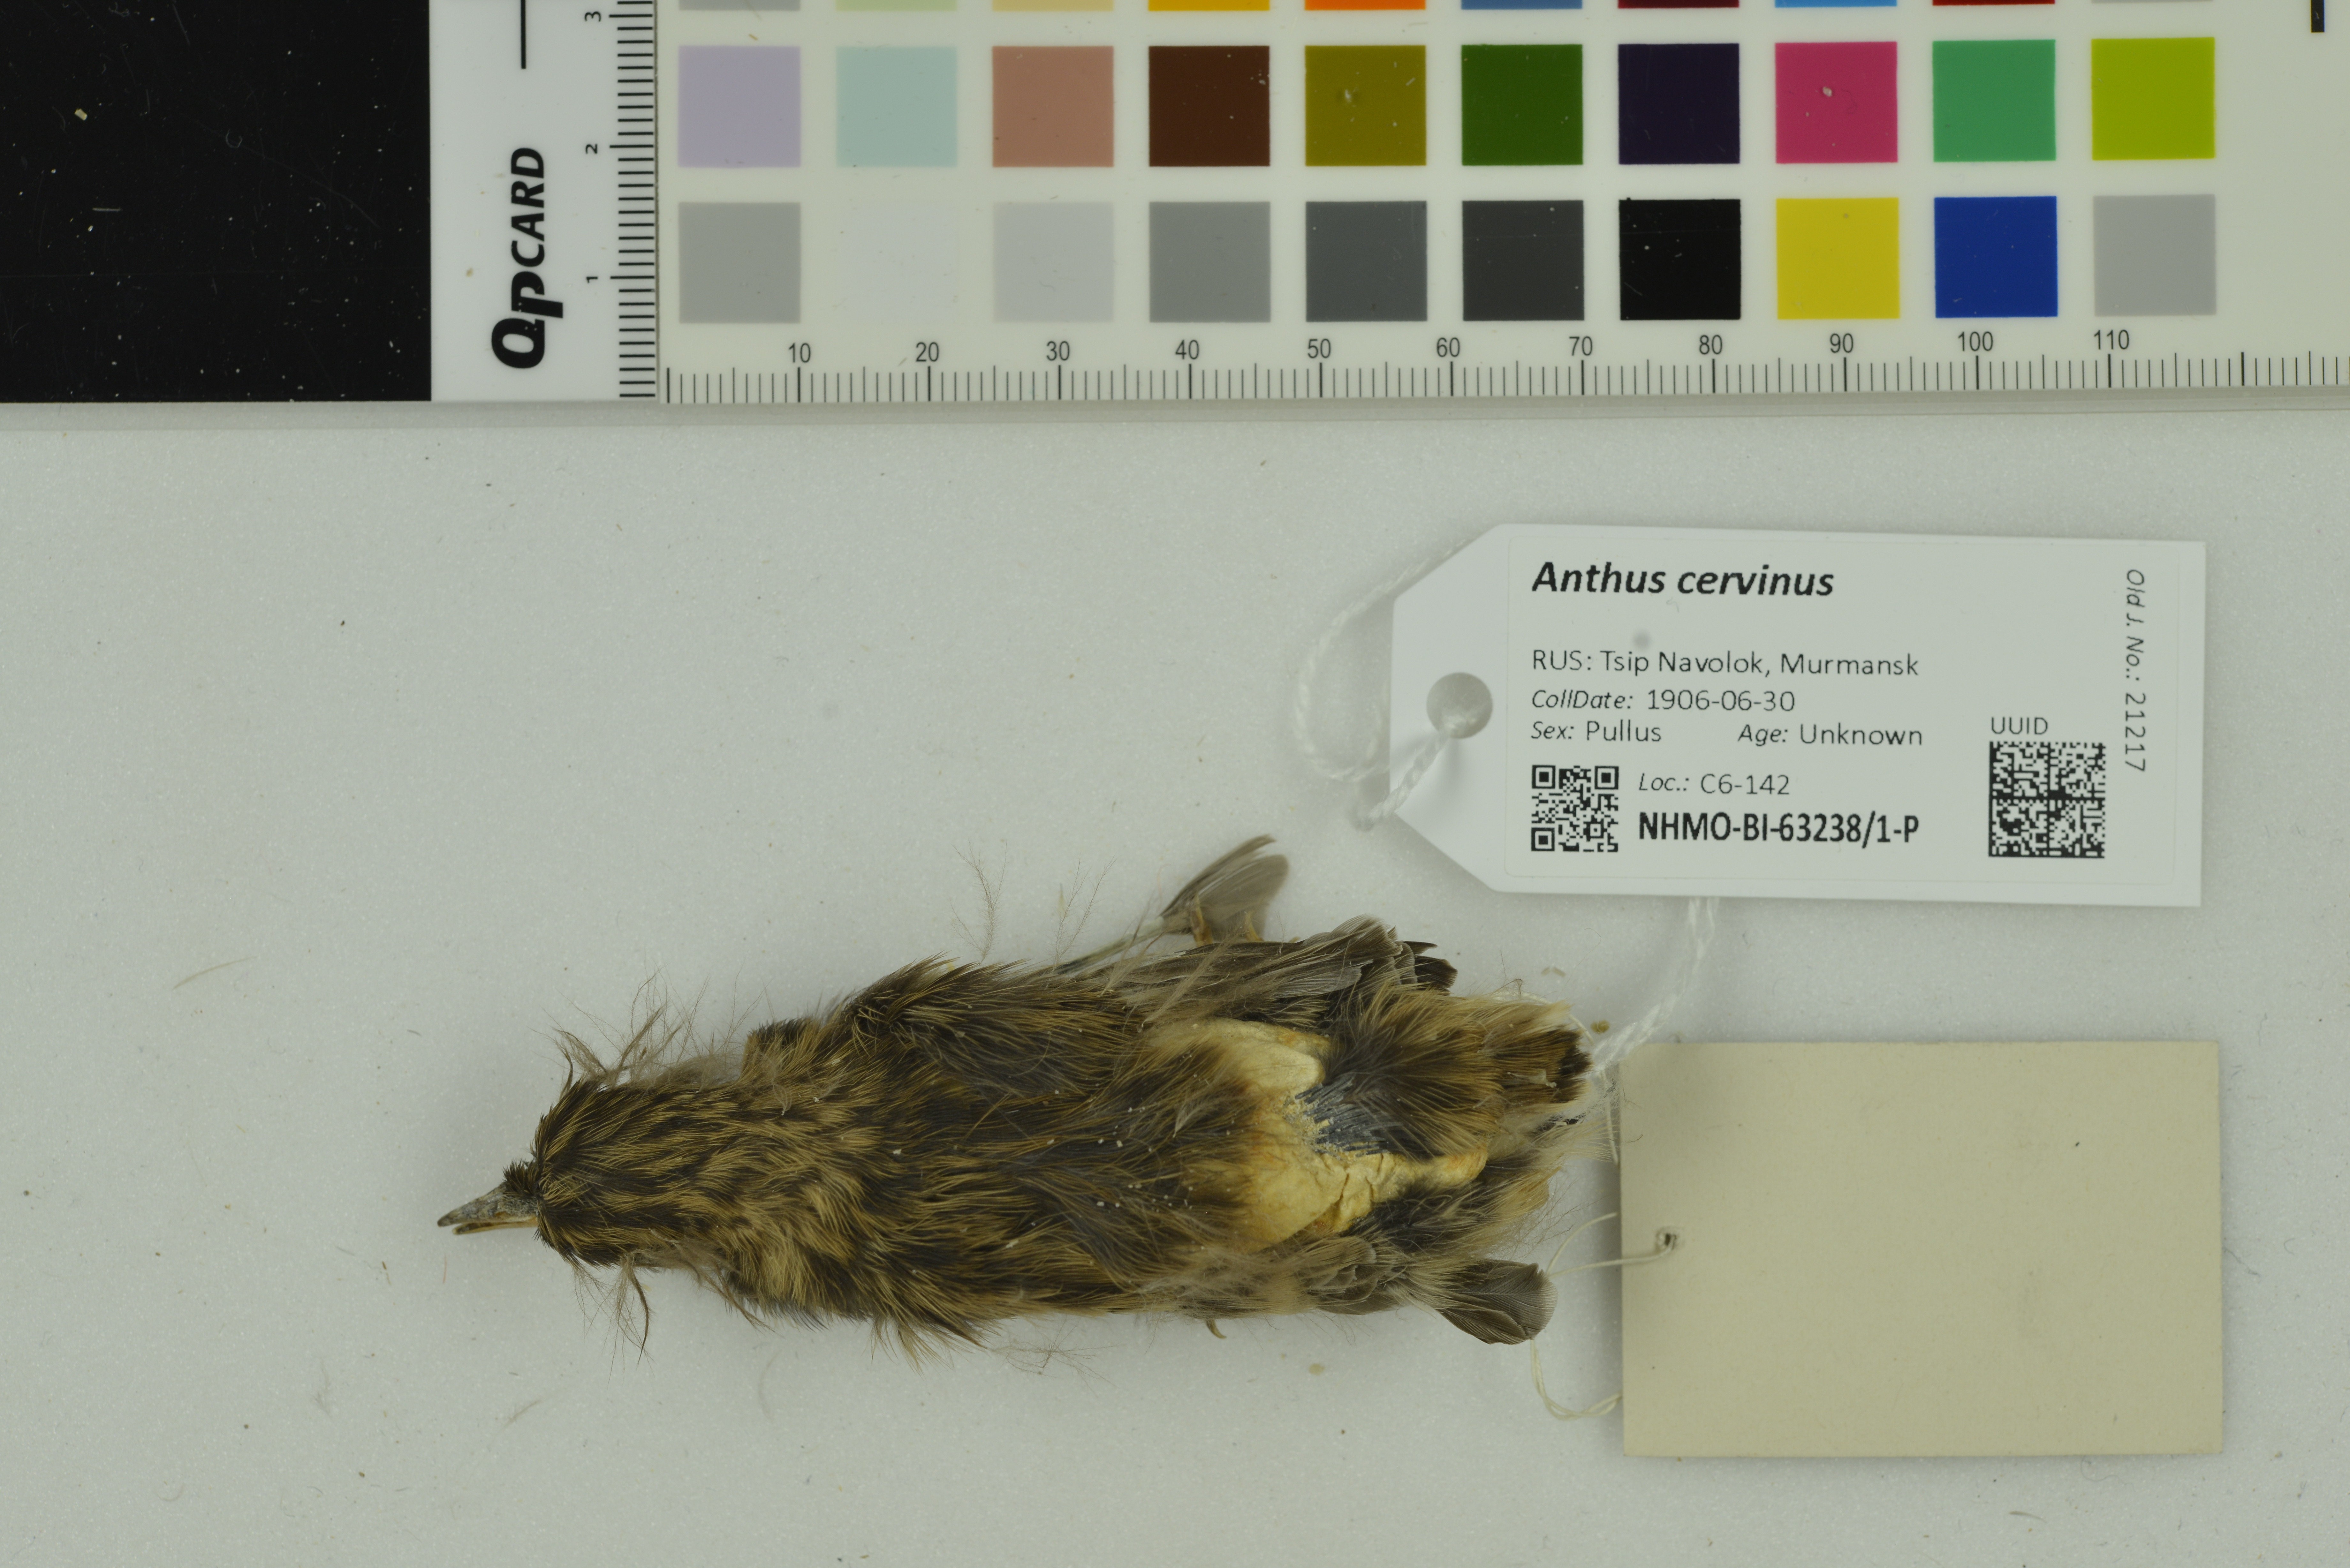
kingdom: Animalia
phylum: Chordata
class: Aves
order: Passeriformes
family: Motacillidae
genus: Anthus
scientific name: Anthus cervinus
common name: Red-throated pipit
